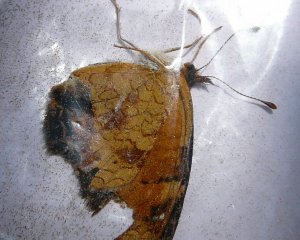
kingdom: Animalia
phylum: Arthropoda
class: Insecta
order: Lepidoptera
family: Nymphalidae
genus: Phyciodes
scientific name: Phyciodes tharos
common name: Northern Crescent
